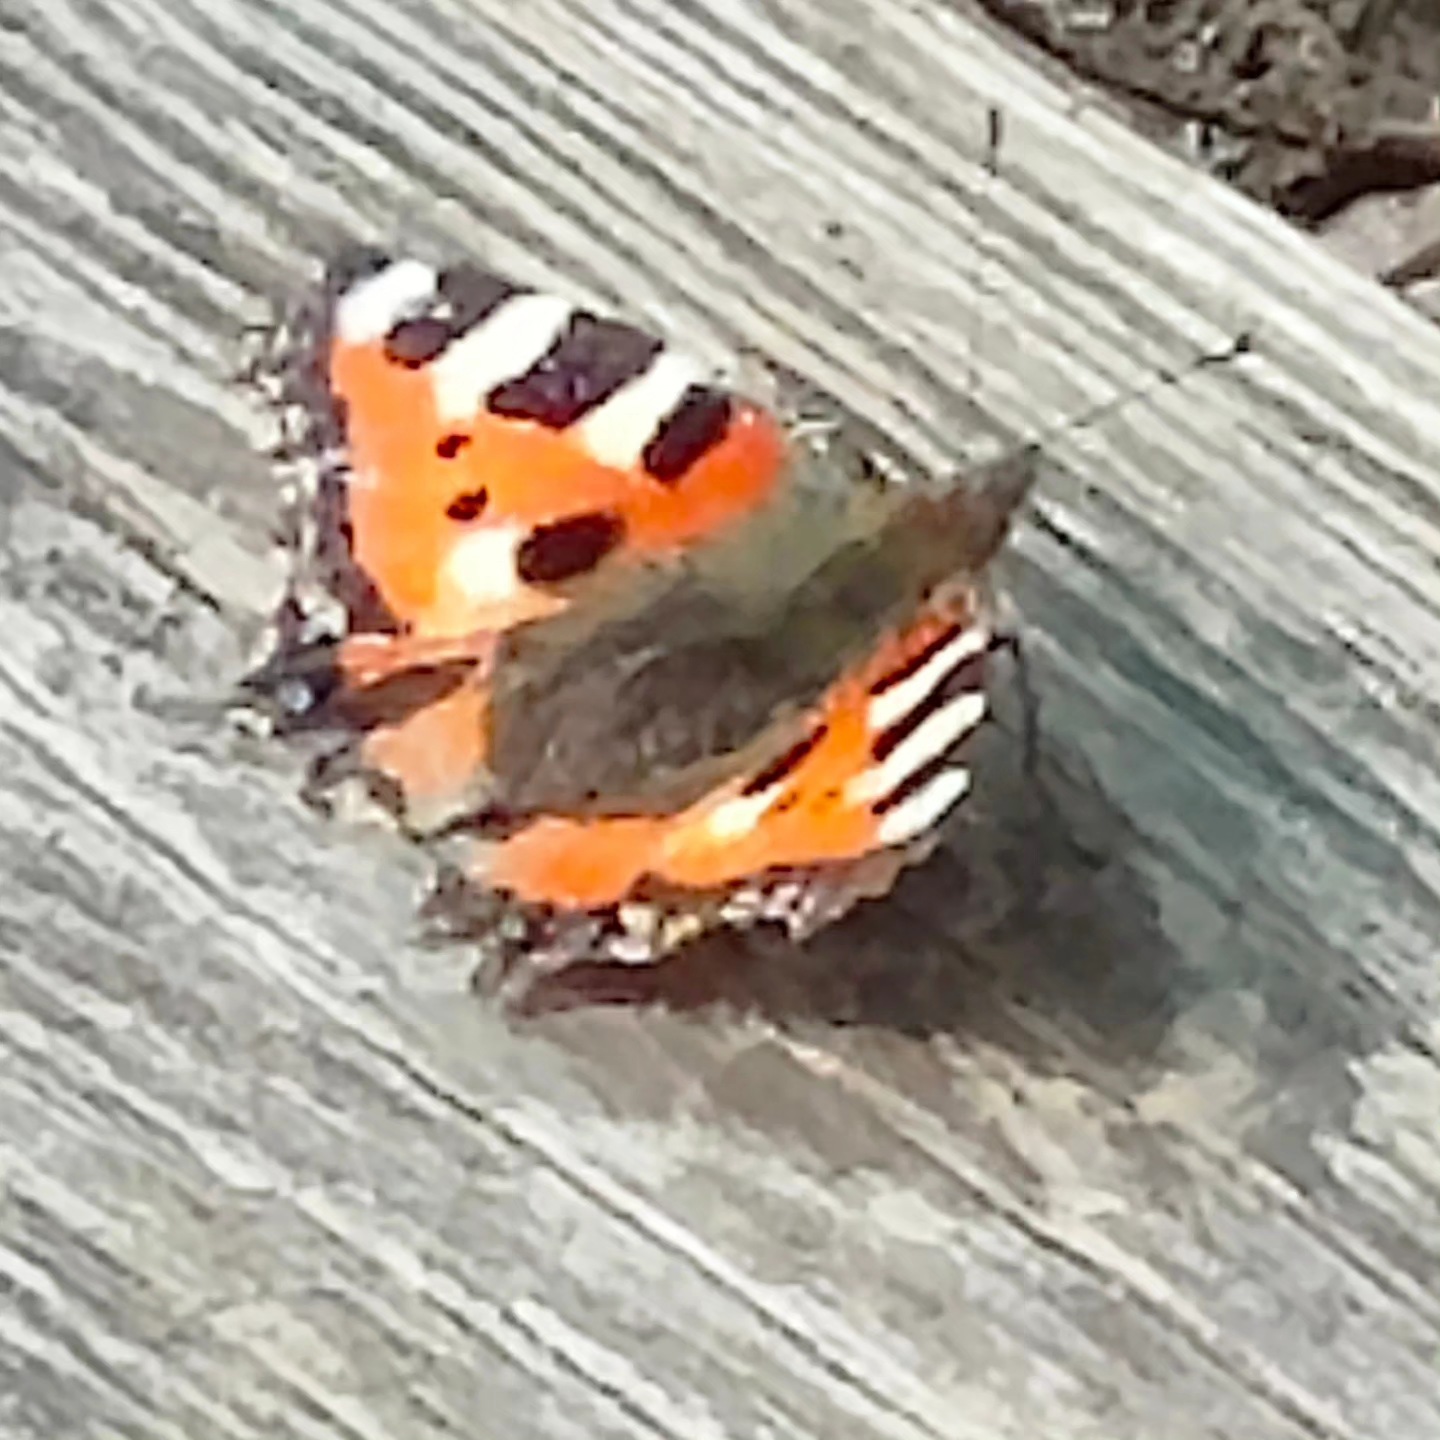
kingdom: Animalia
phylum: Arthropoda
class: Insecta
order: Lepidoptera
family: Nymphalidae
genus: Aglais
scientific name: Aglais urticae
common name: Nældens takvinge
